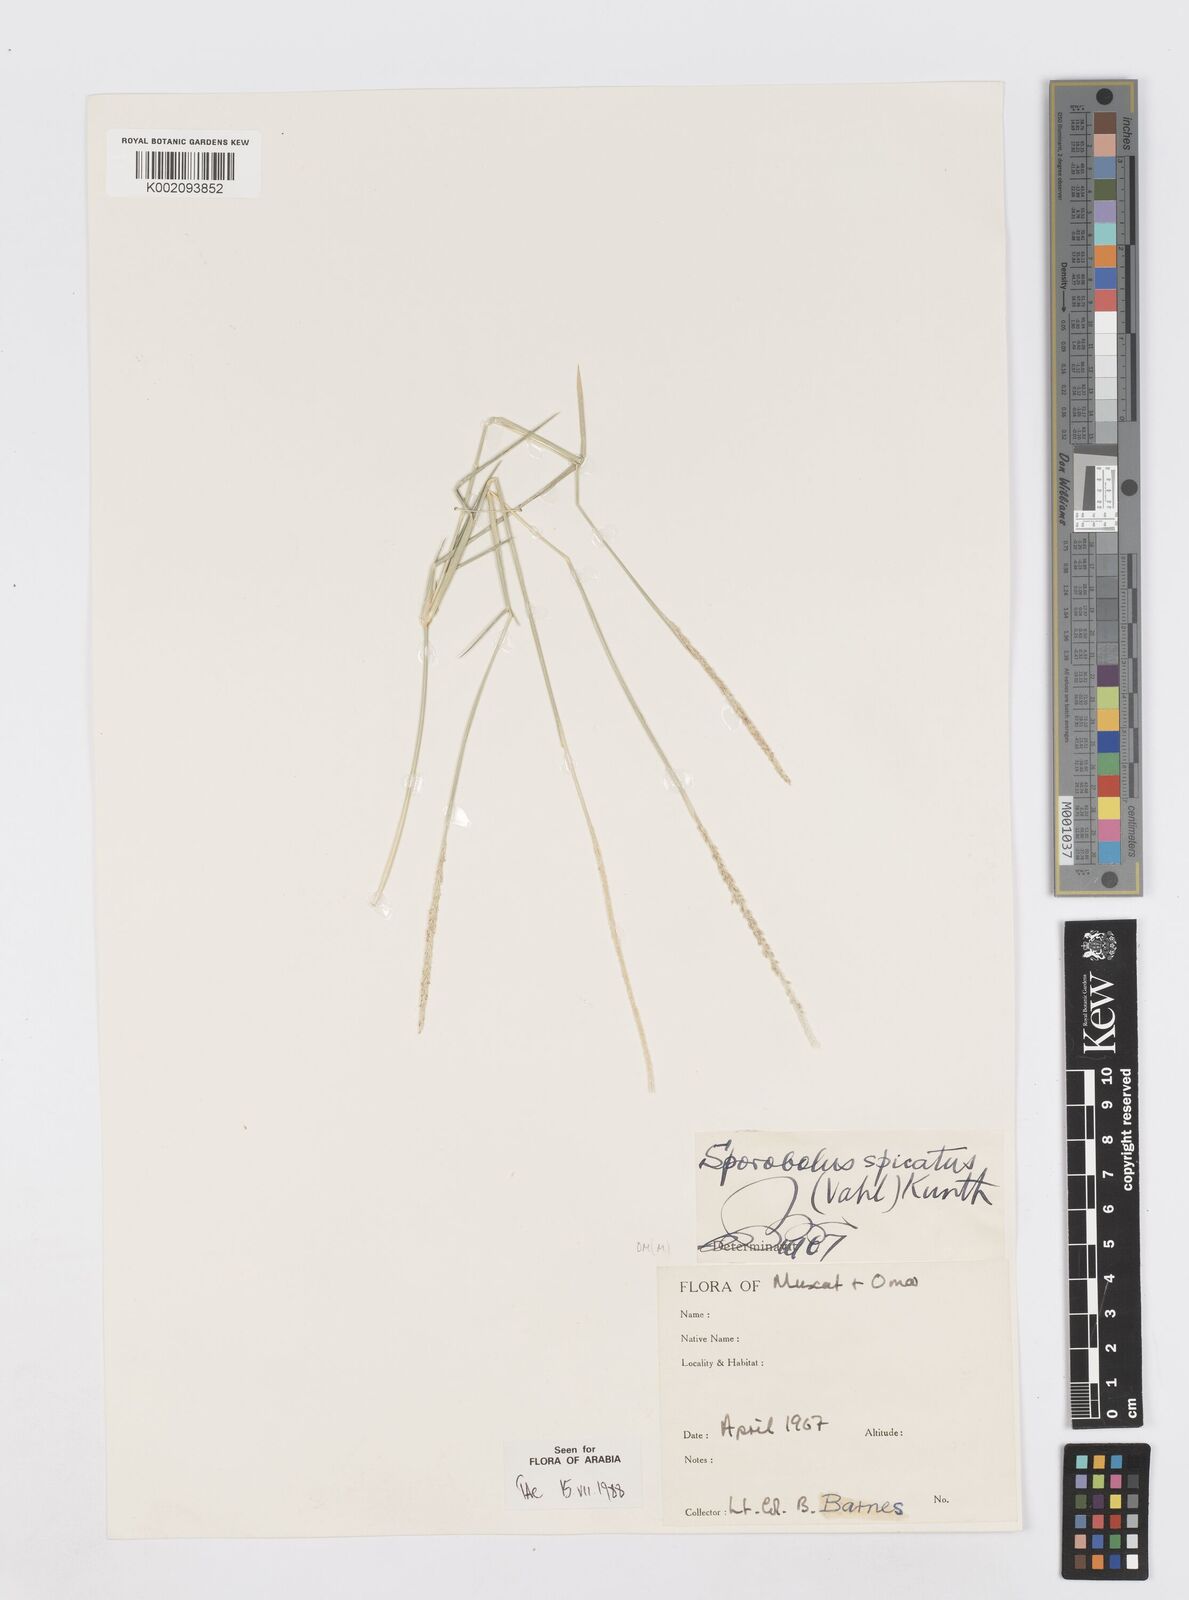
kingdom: Plantae
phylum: Tracheophyta
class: Liliopsida
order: Poales
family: Poaceae
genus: Sporobolus
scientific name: Sporobolus spicatus
